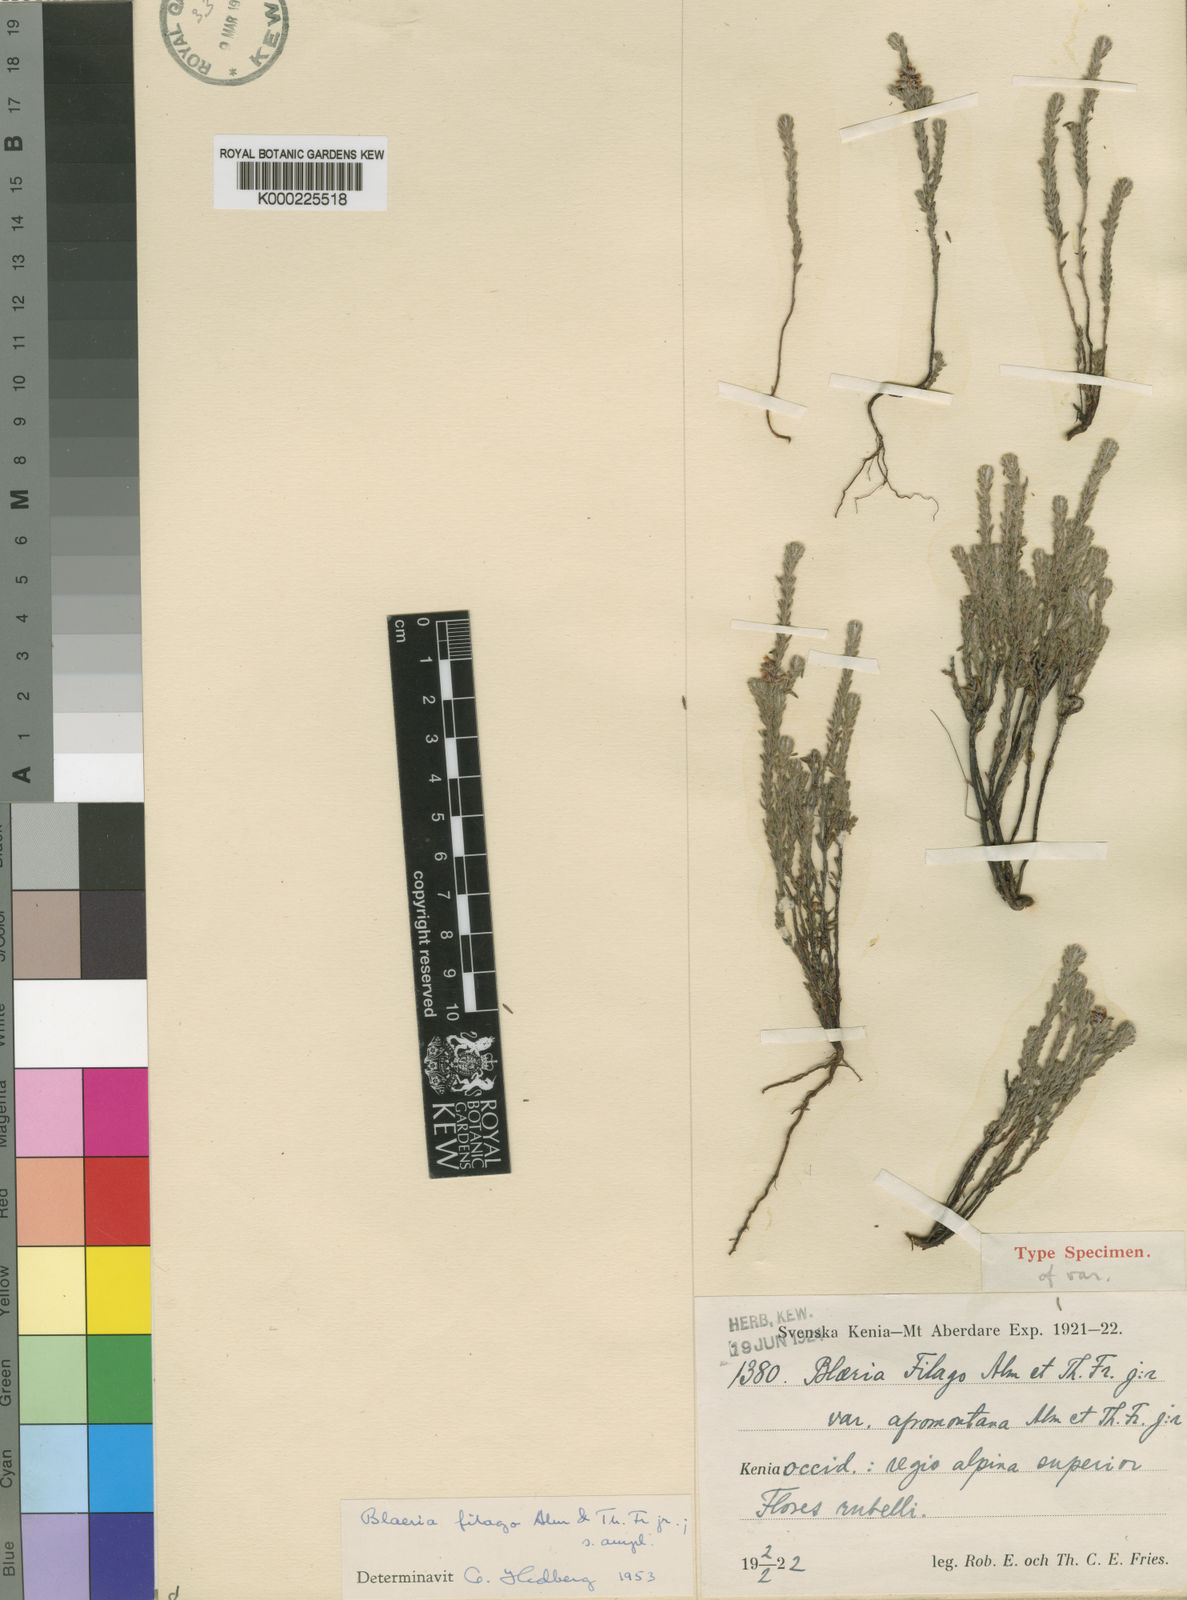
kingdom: Plantae
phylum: Tracheophyta
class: Magnoliopsida
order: Ericales
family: Ericaceae
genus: Erica
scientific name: Erica filago
